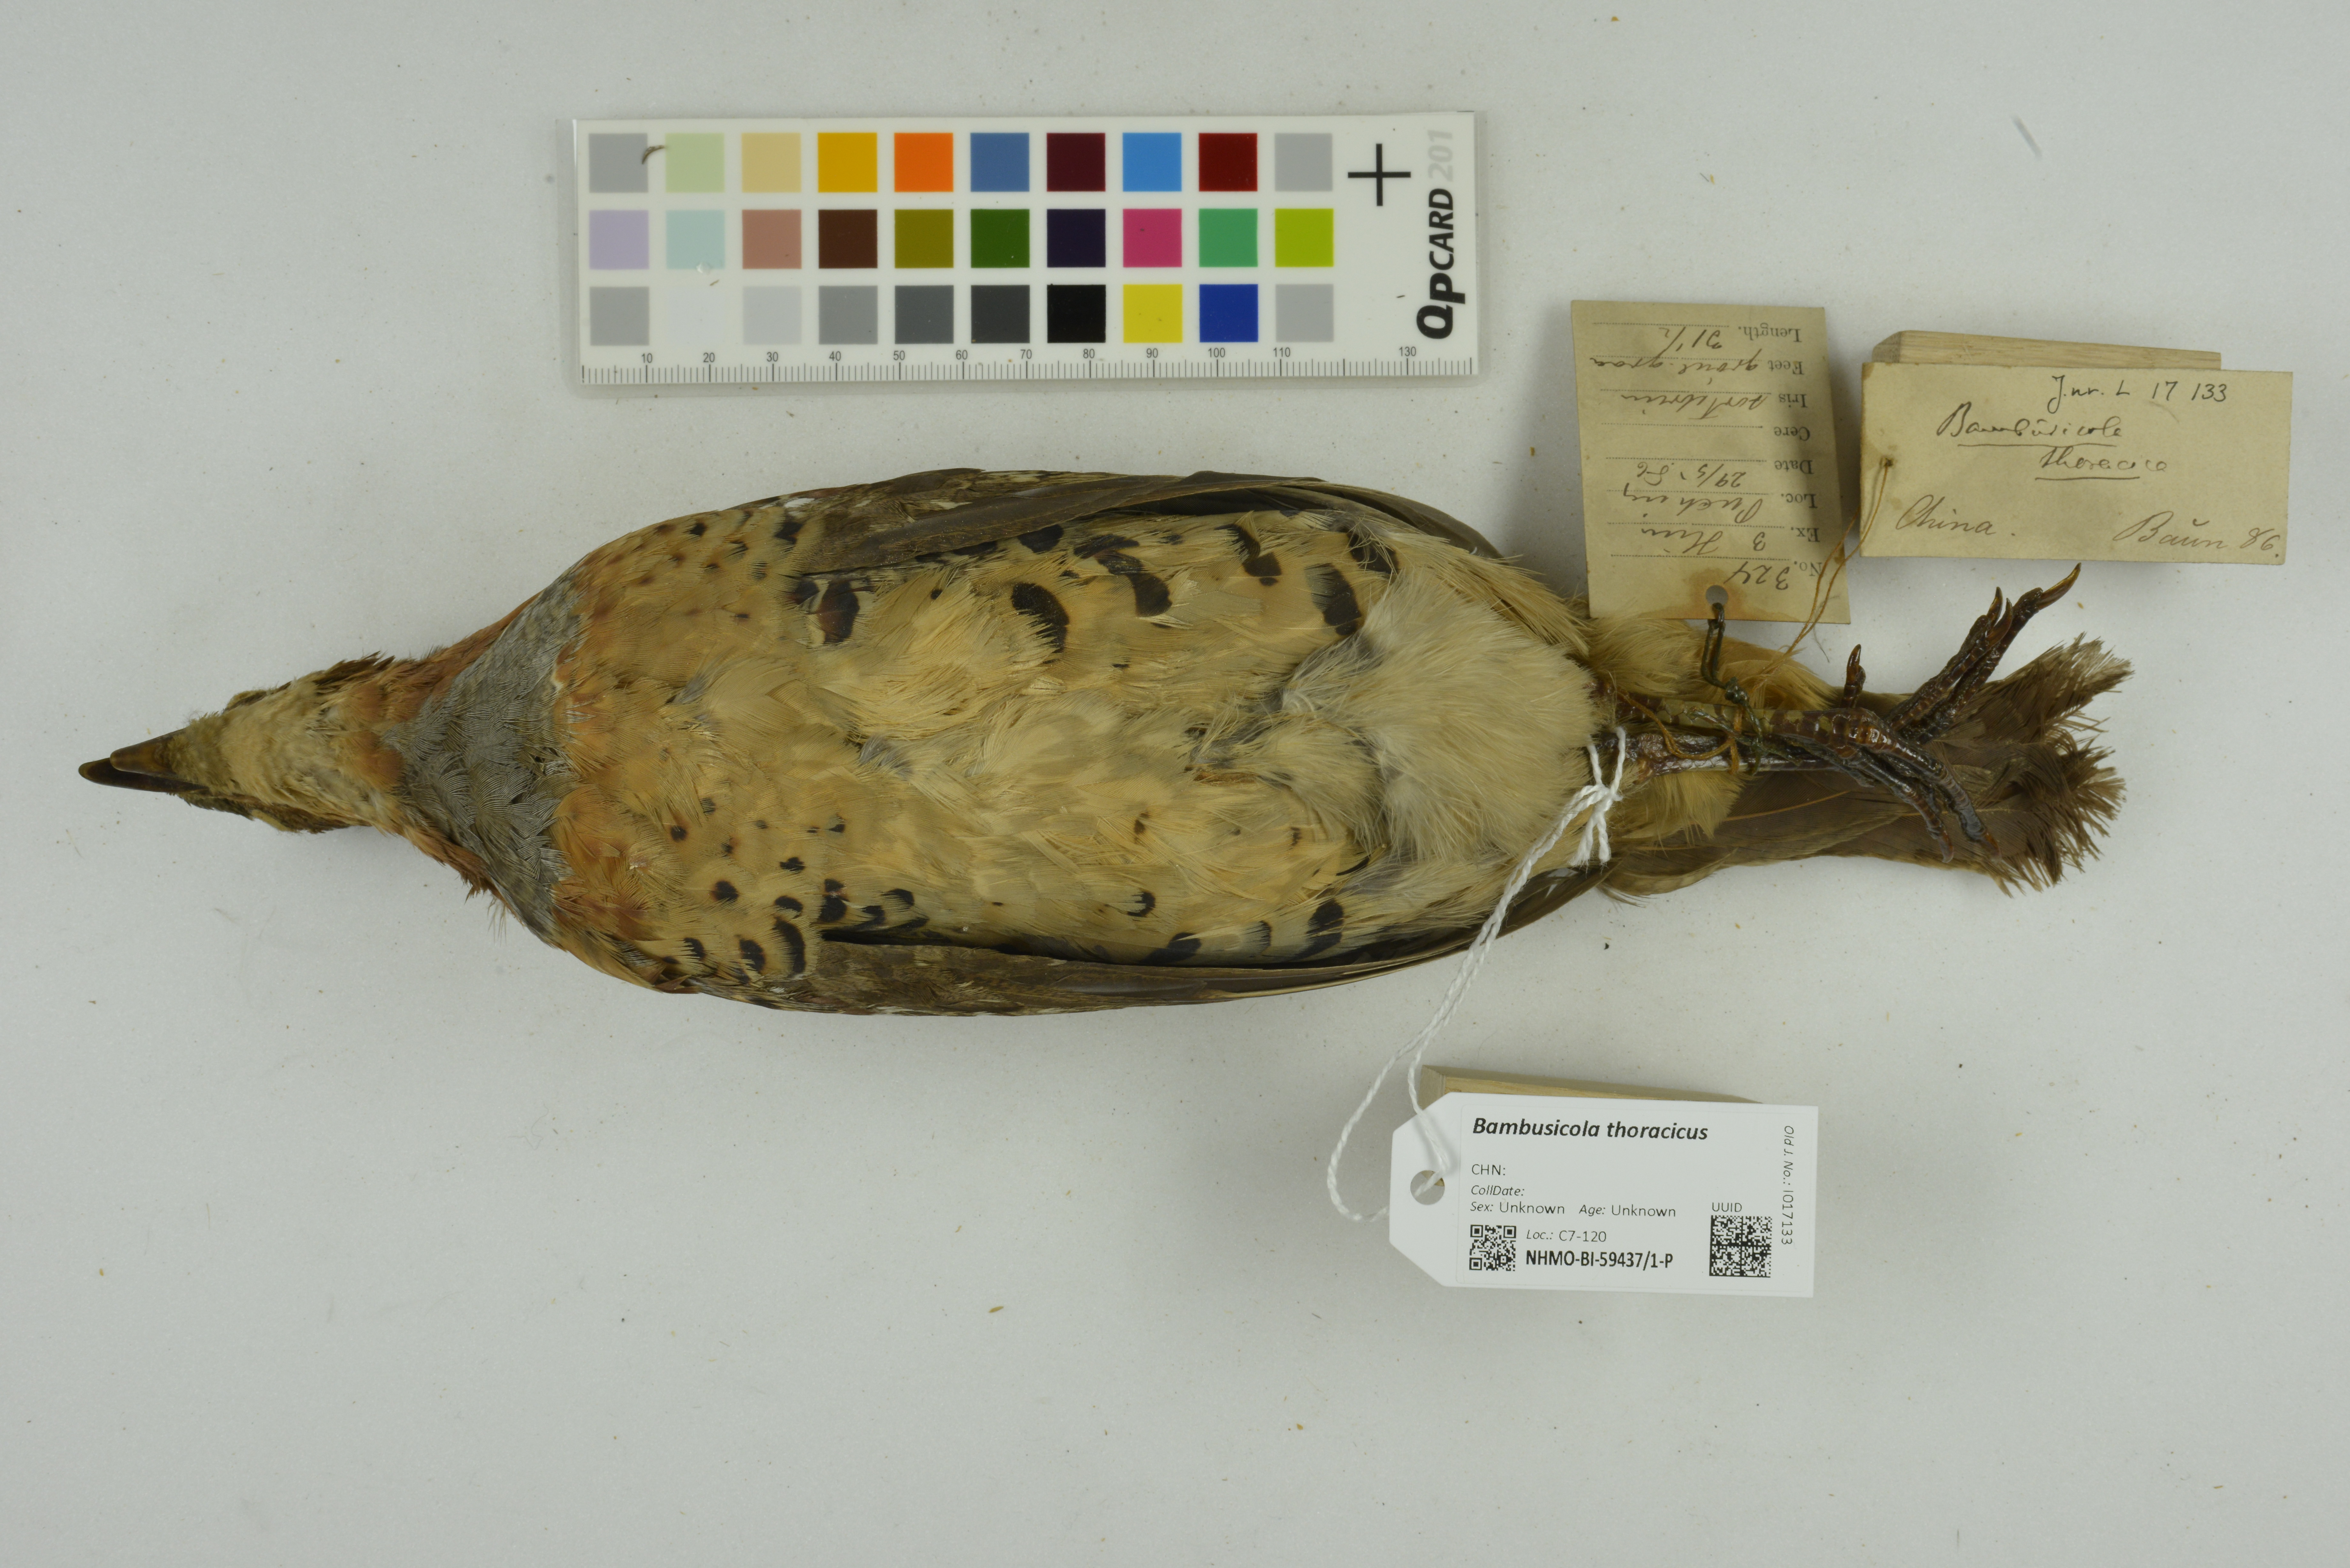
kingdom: Animalia
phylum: Chordata
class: Aves
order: Galliformes
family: Phasianidae
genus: Bambusicola
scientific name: Bambusicola thoracicus
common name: Chinese bamboo partridge
